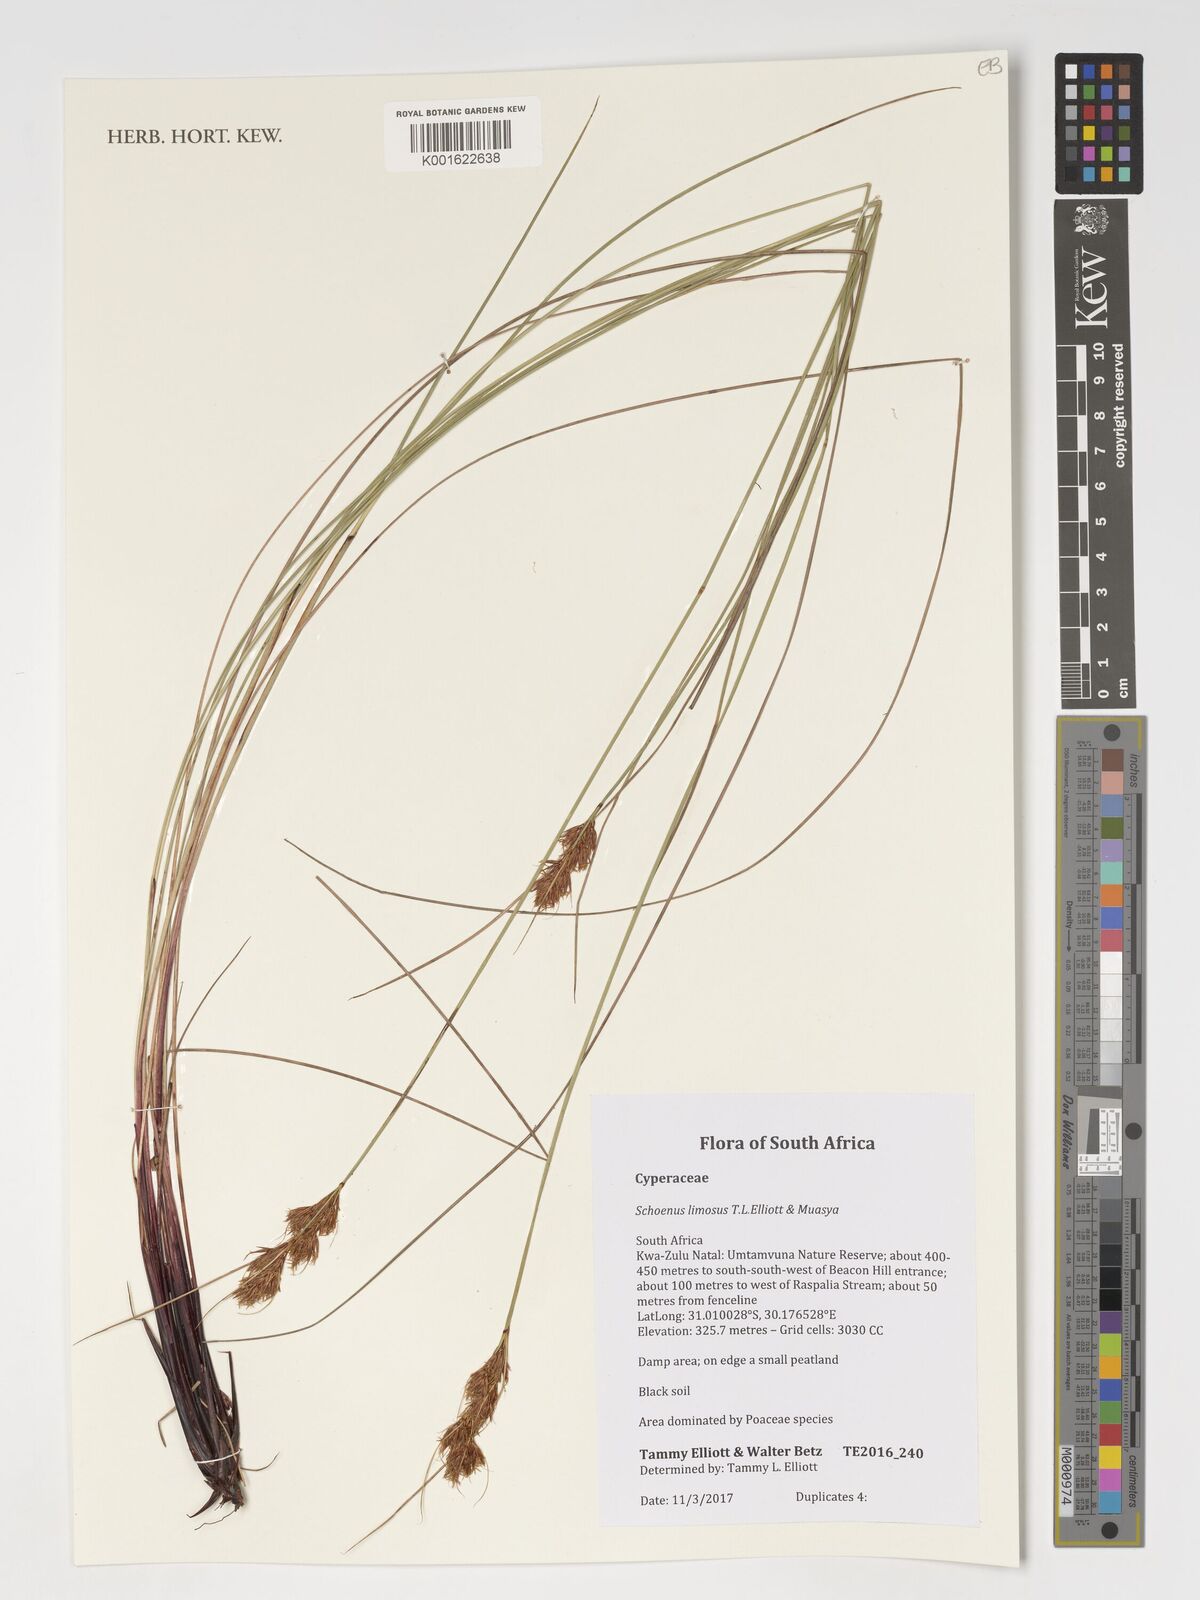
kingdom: Plantae
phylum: Tracheophyta
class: Liliopsida
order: Poales
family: Cyperaceae
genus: Schoenus
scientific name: Schoenus limosus
